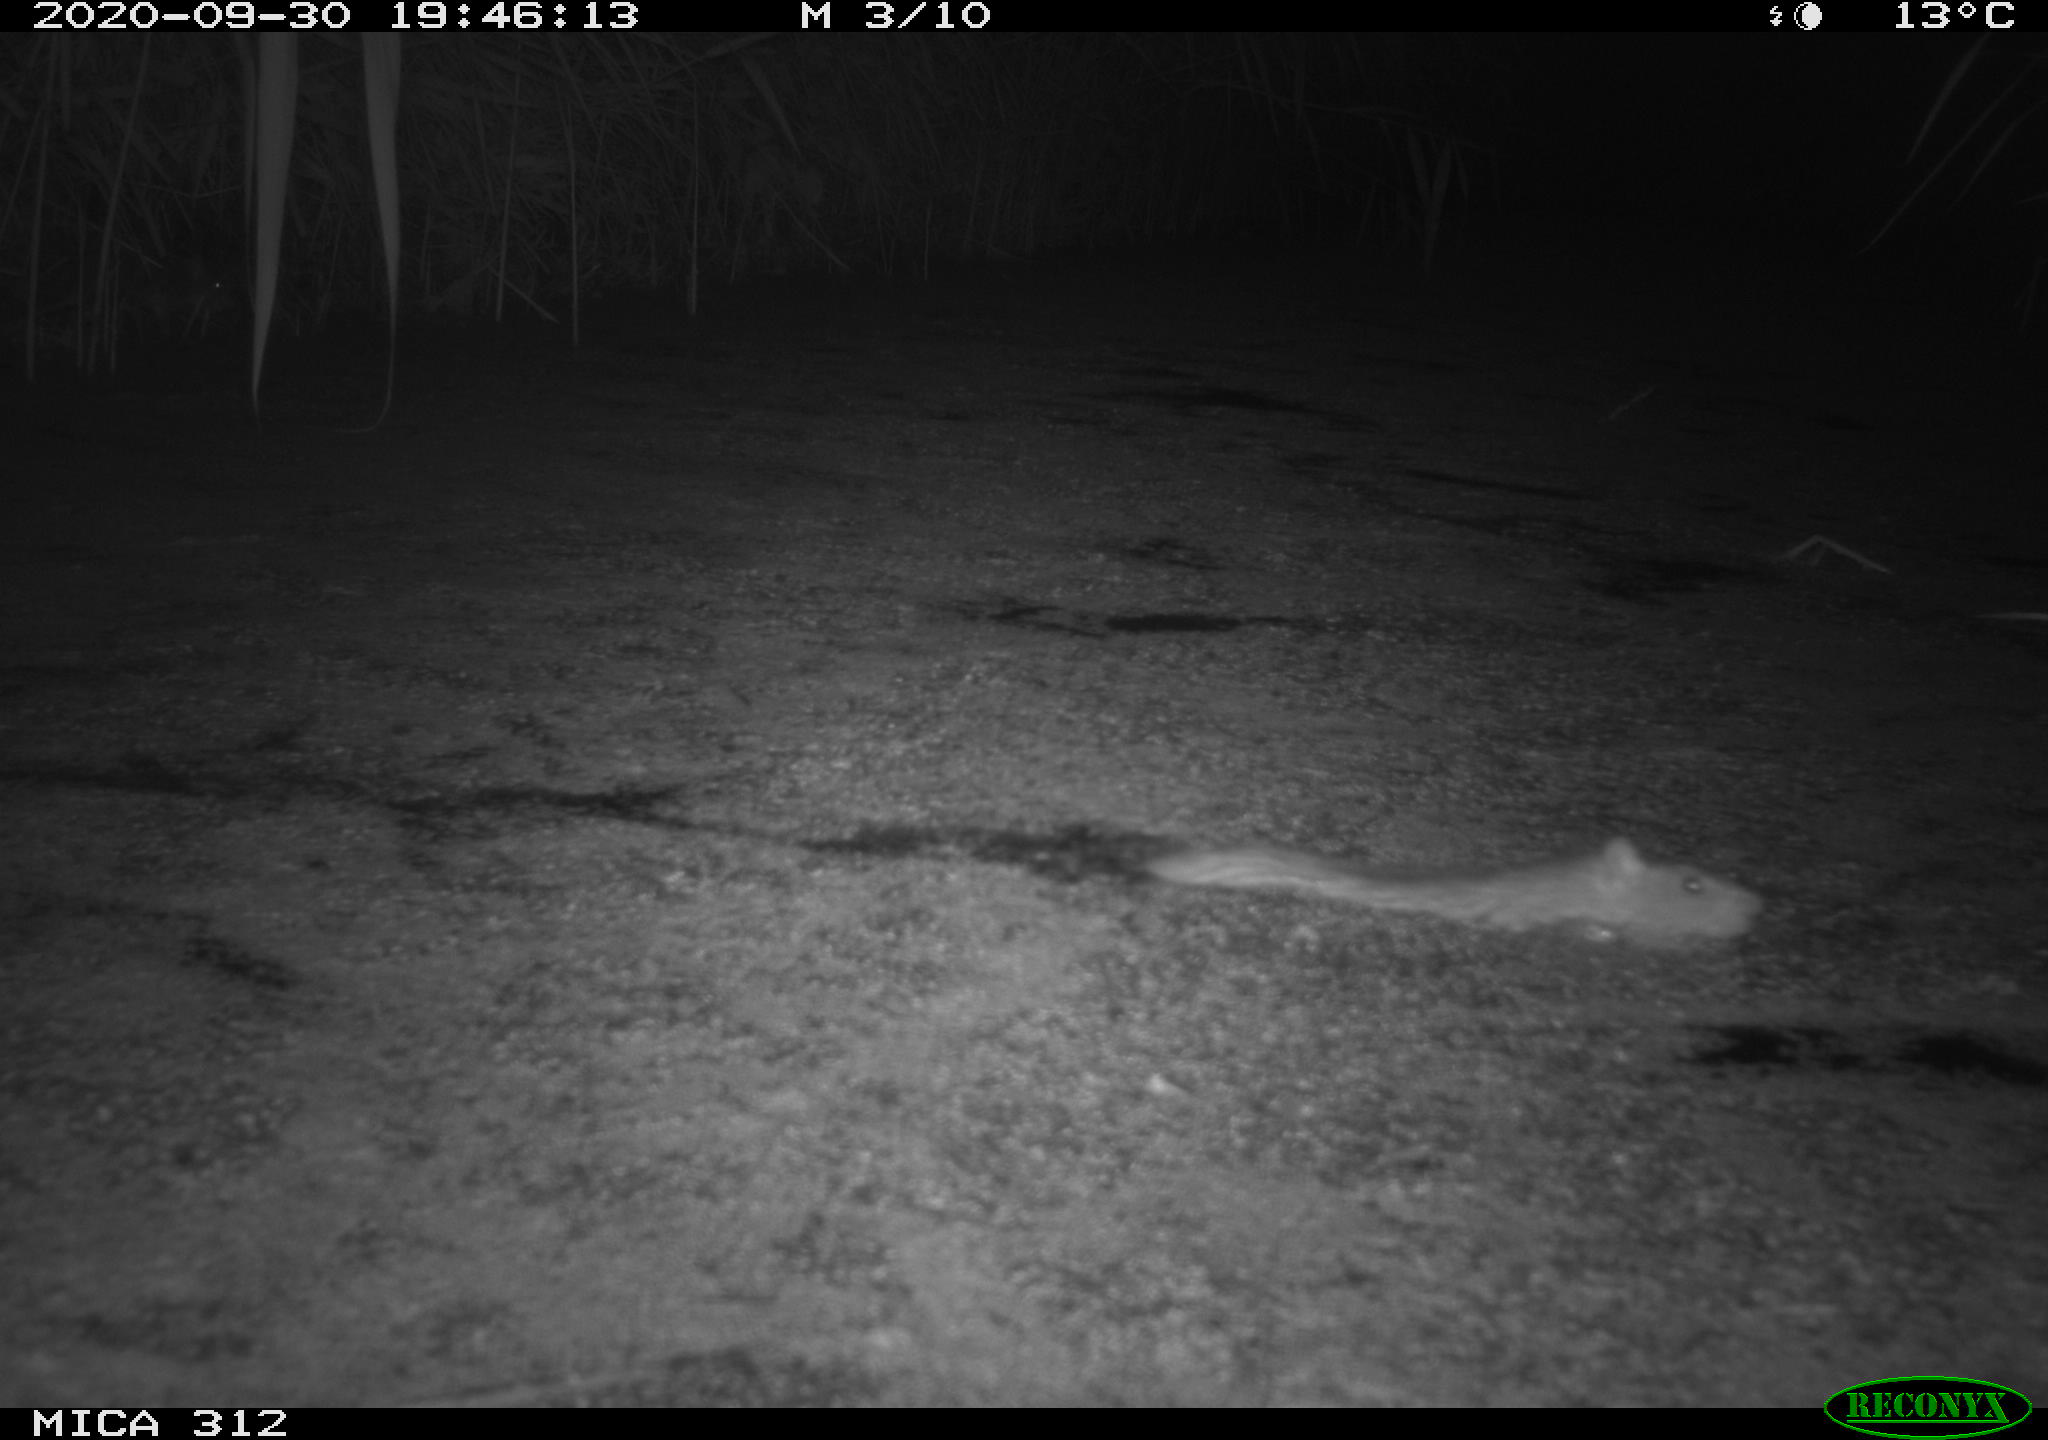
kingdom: Animalia
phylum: Chordata
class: Mammalia
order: Rodentia
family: Cricetidae
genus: Ondatra
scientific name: Ondatra zibethicus
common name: Muskrat
